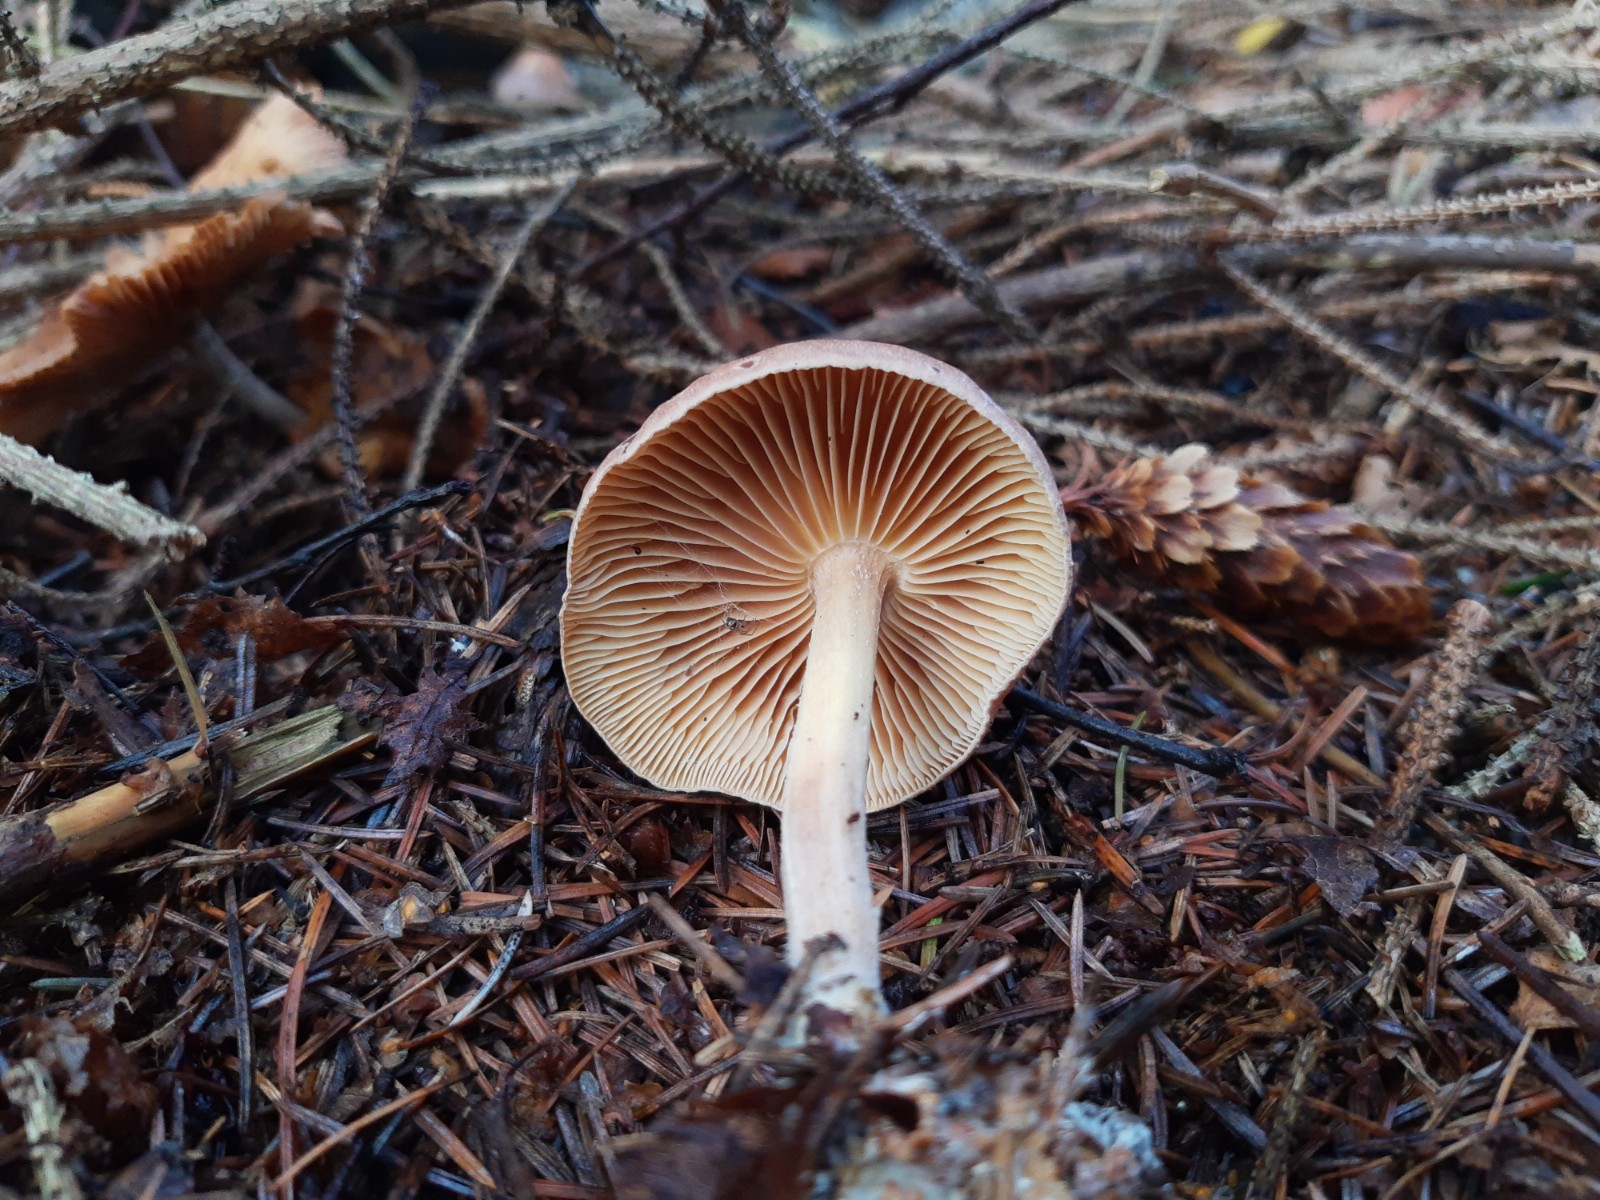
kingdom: Fungi
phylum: Basidiomycota
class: Agaricomycetes
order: Agaricales
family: Omphalotaceae
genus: Collybiopsis
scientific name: Collybiopsis peronata
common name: bestøvlet fladhat
